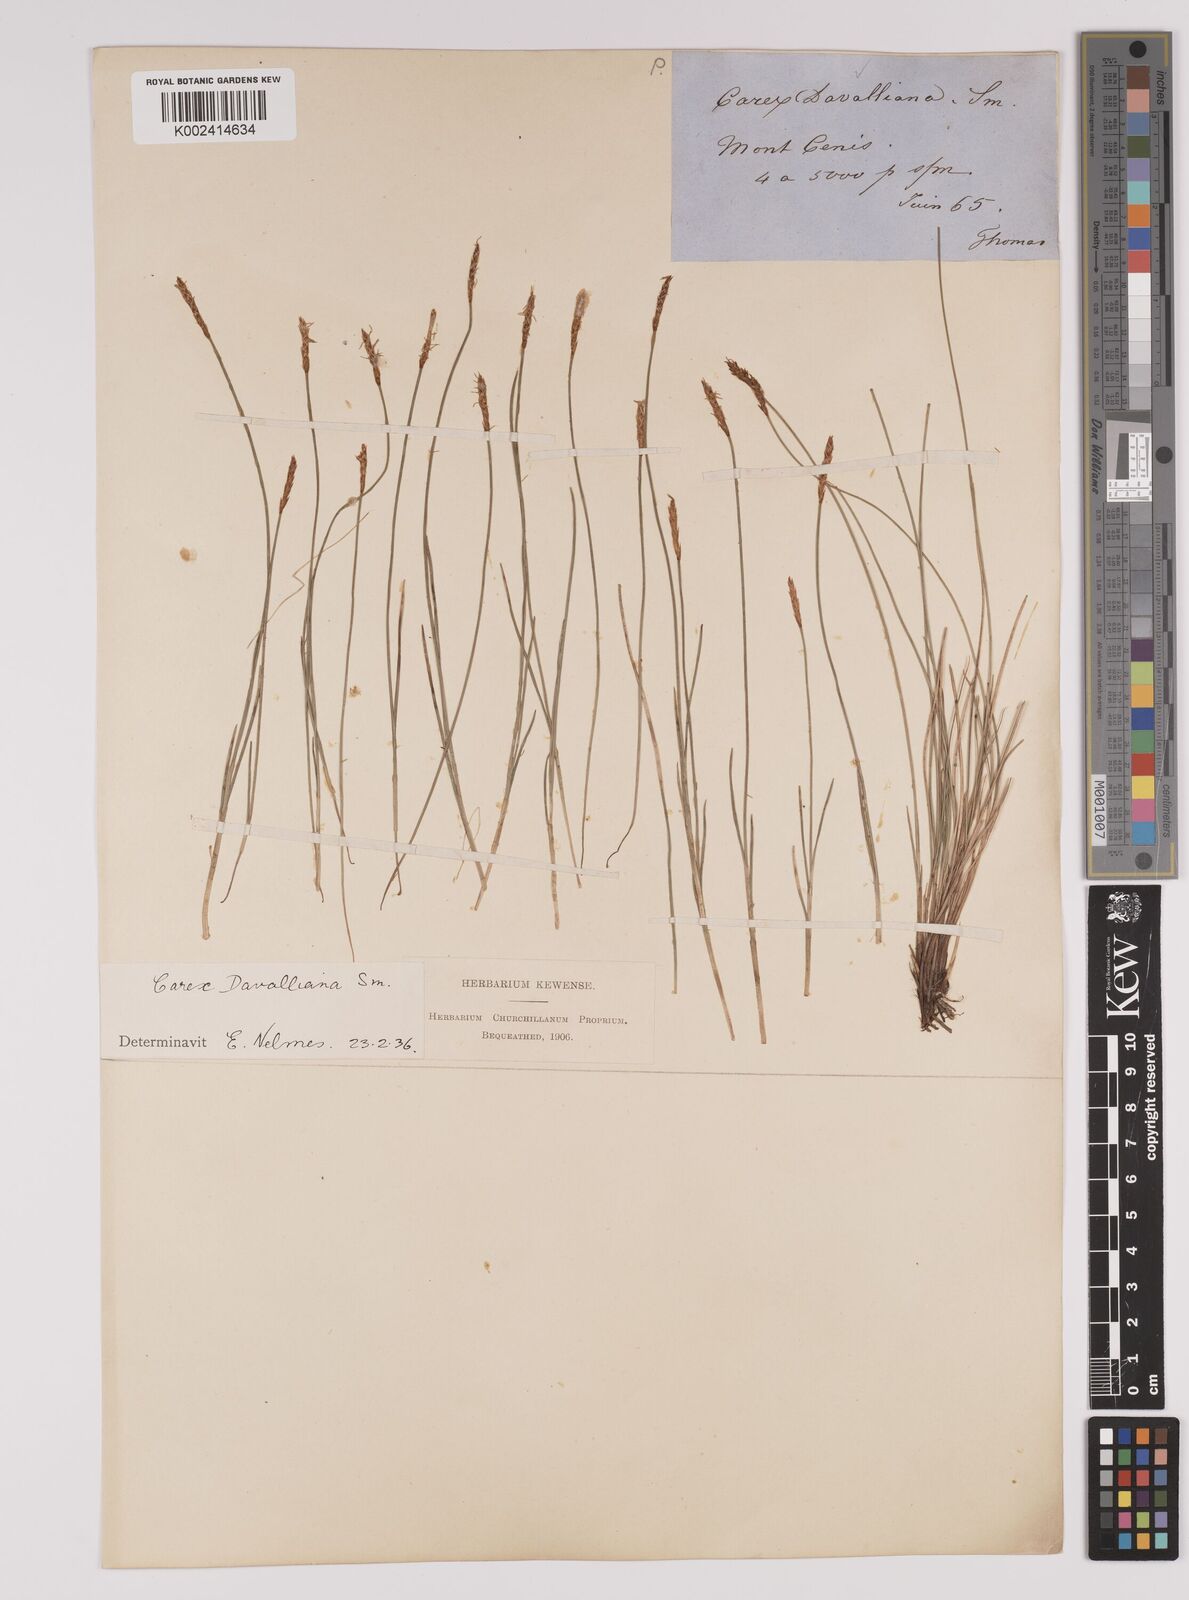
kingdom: Plantae
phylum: Tracheophyta
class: Liliopsida
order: Poales
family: Cyperaceae
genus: Carex
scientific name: Carex davalliana
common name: Davall's sedge
